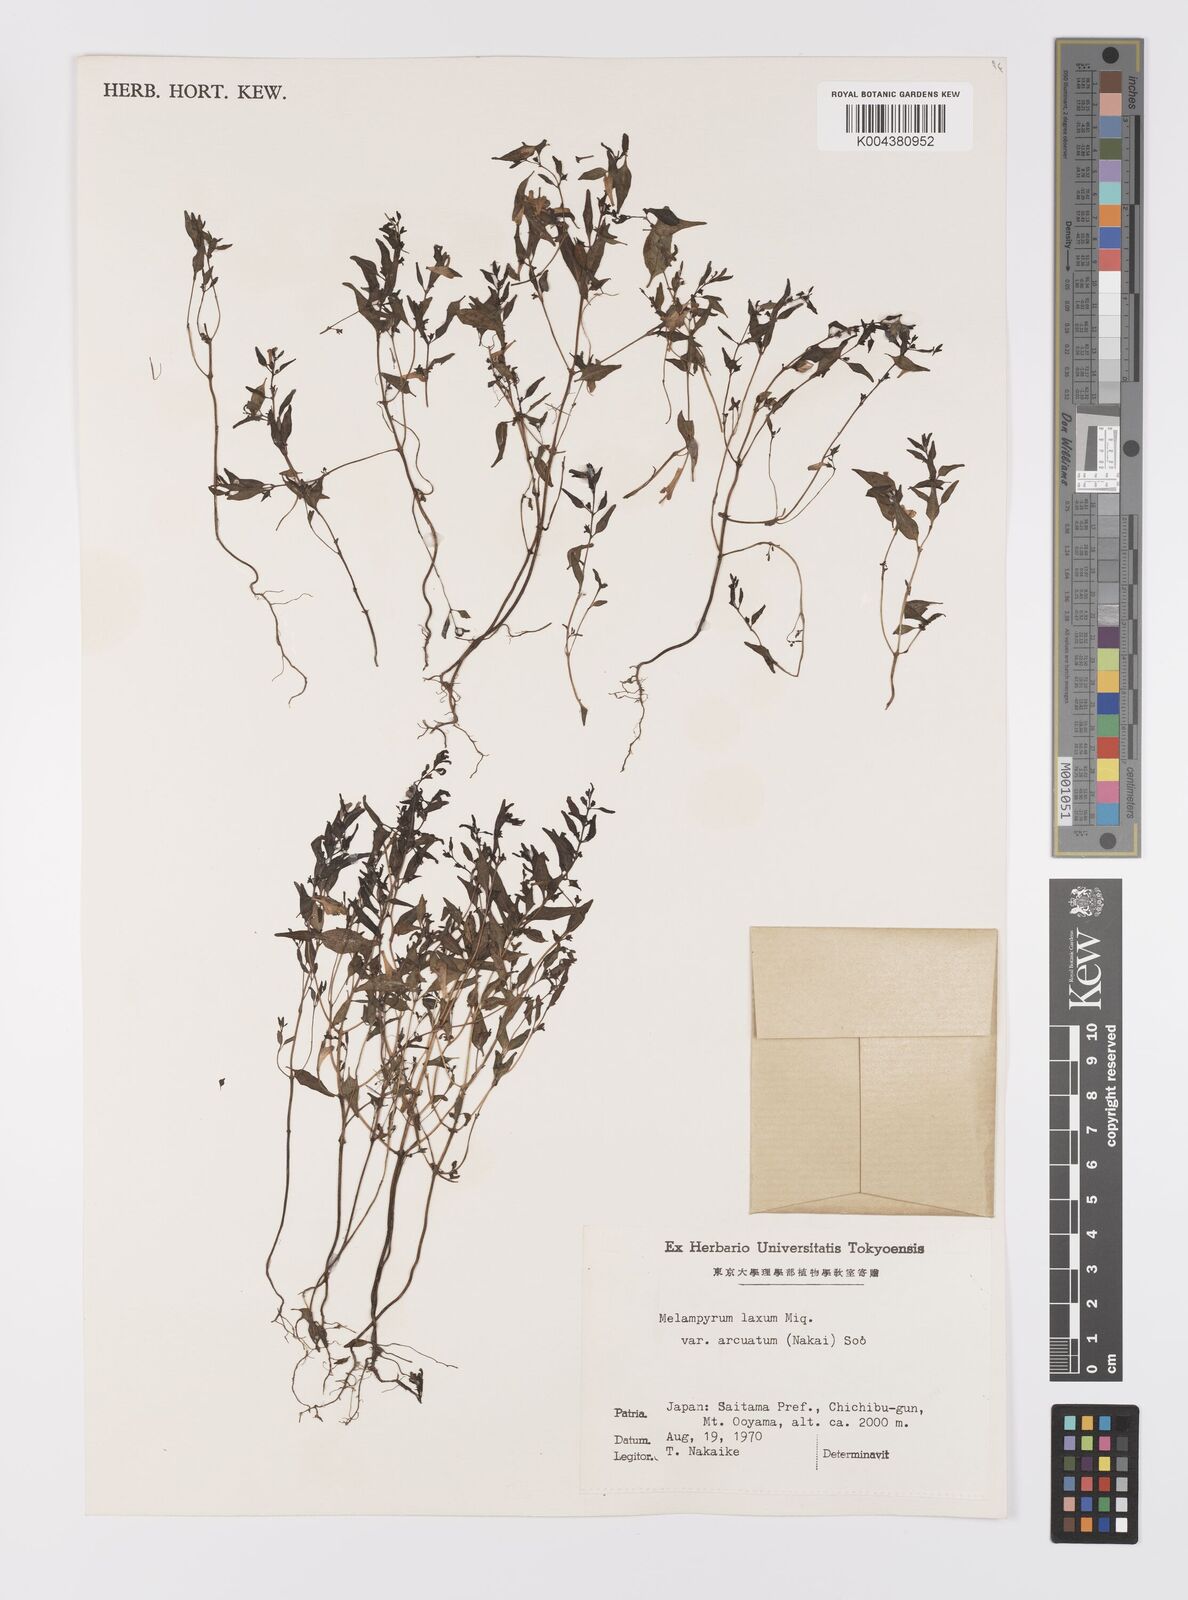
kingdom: Plantae
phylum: Tracheophyta
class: Magnoliopsida
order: Lamiales
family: Orobanchaceae
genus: Melampyrum
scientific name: Melampyrum laxum
